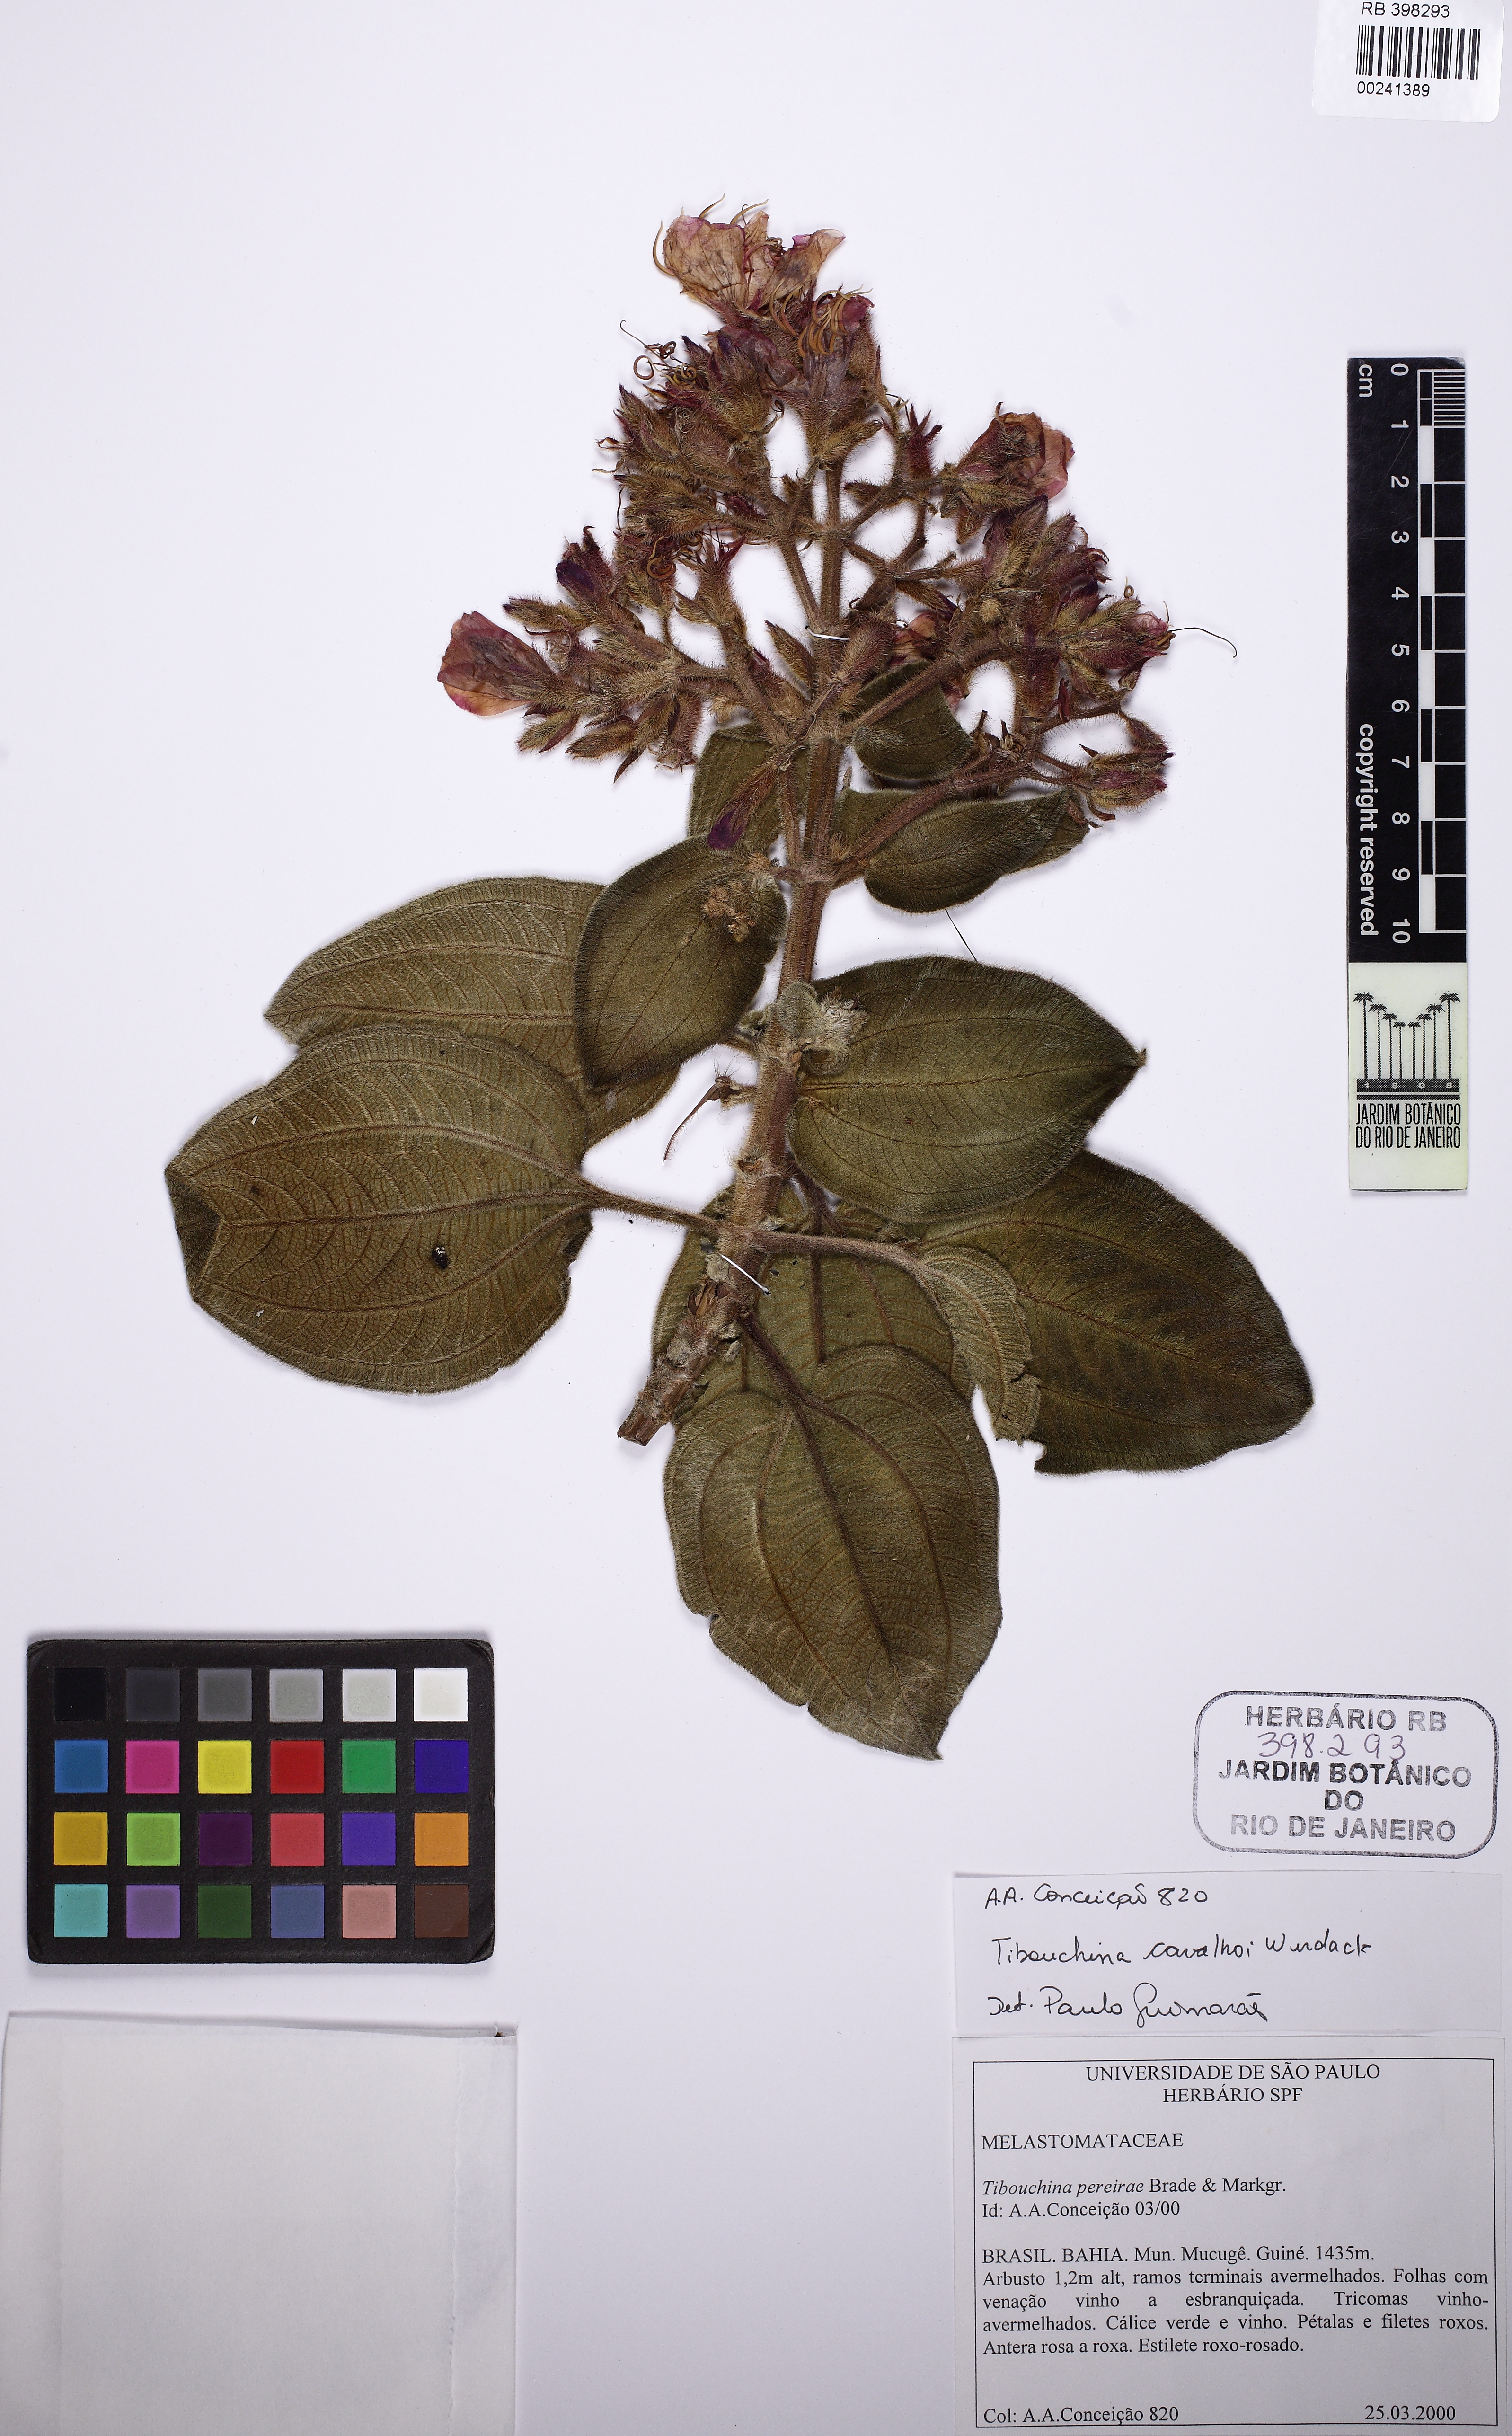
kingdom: Plantae
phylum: Tracheophyta
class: Magnoliopsida
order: Myrtales
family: Melastomataceae
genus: Pleroma
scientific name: Pleroma carvalhoi
